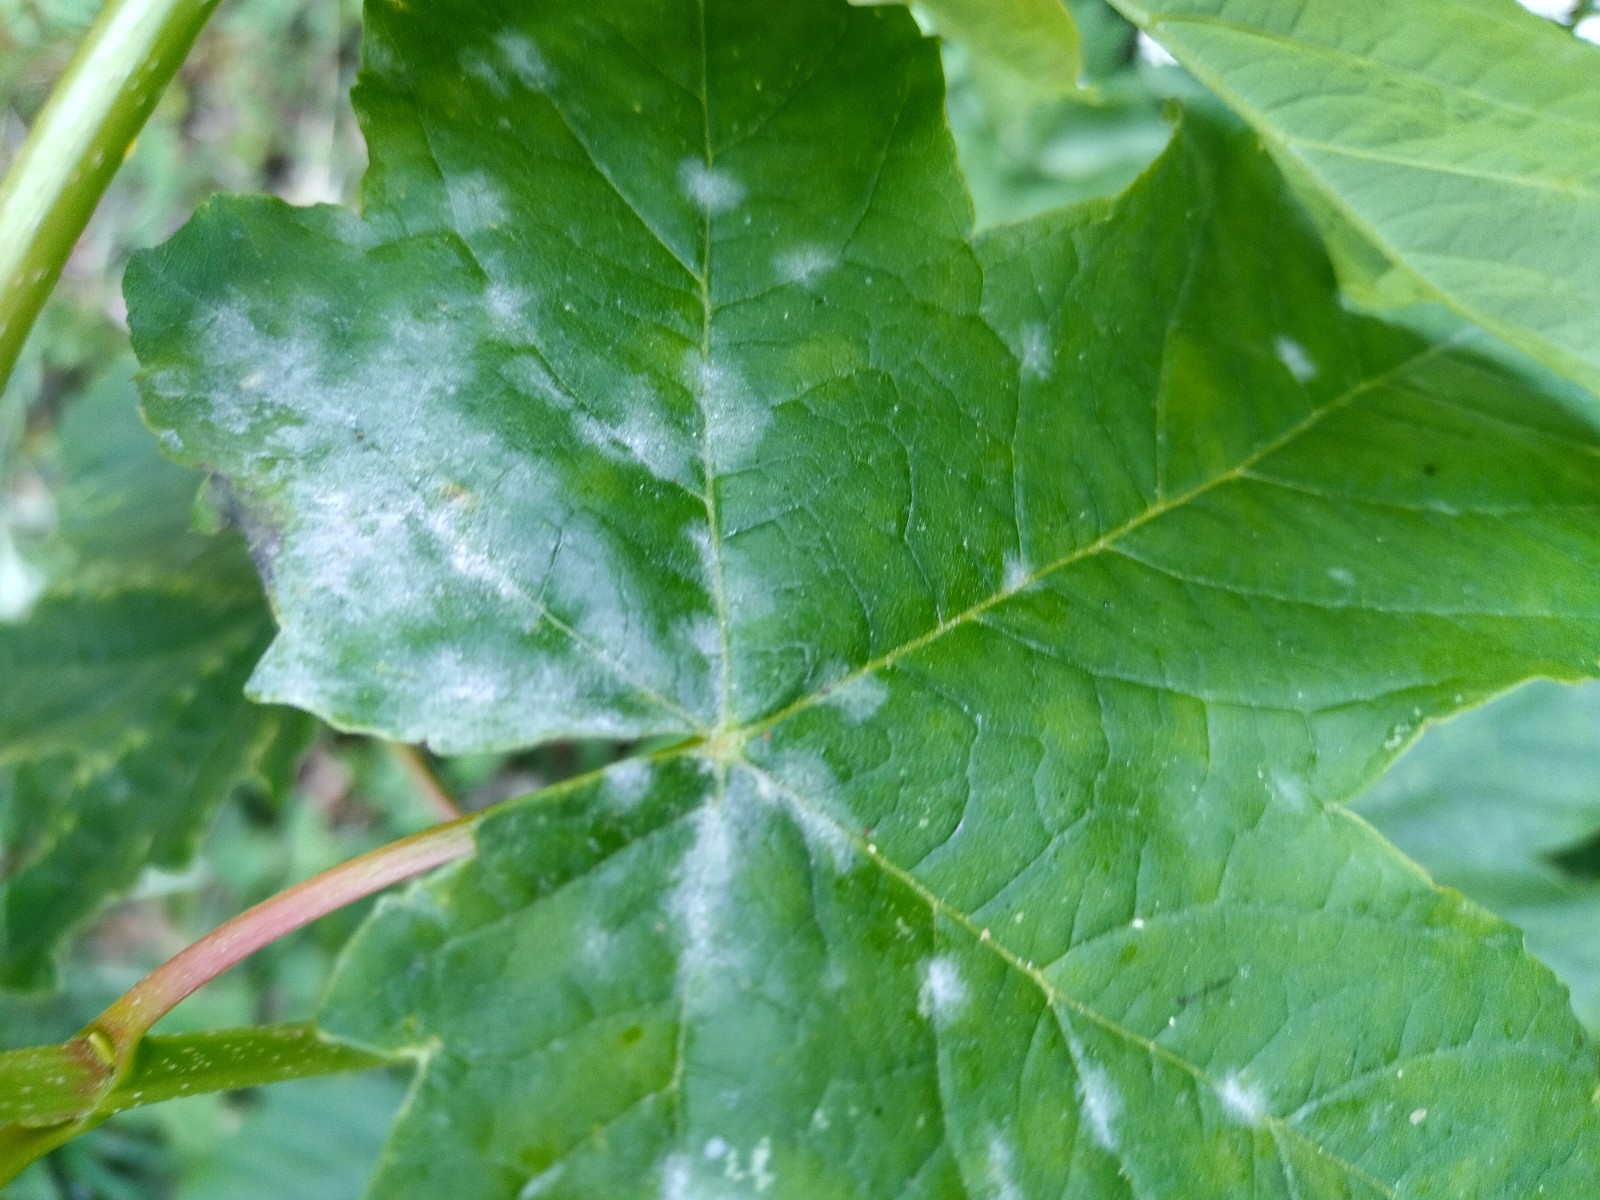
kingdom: Fungi
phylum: Ascomycota
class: Leotiomycetes
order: Helotiales
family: Erysiphaceae
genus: Sawadaea
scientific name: Sawadaea bicornis
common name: Maple mildew
